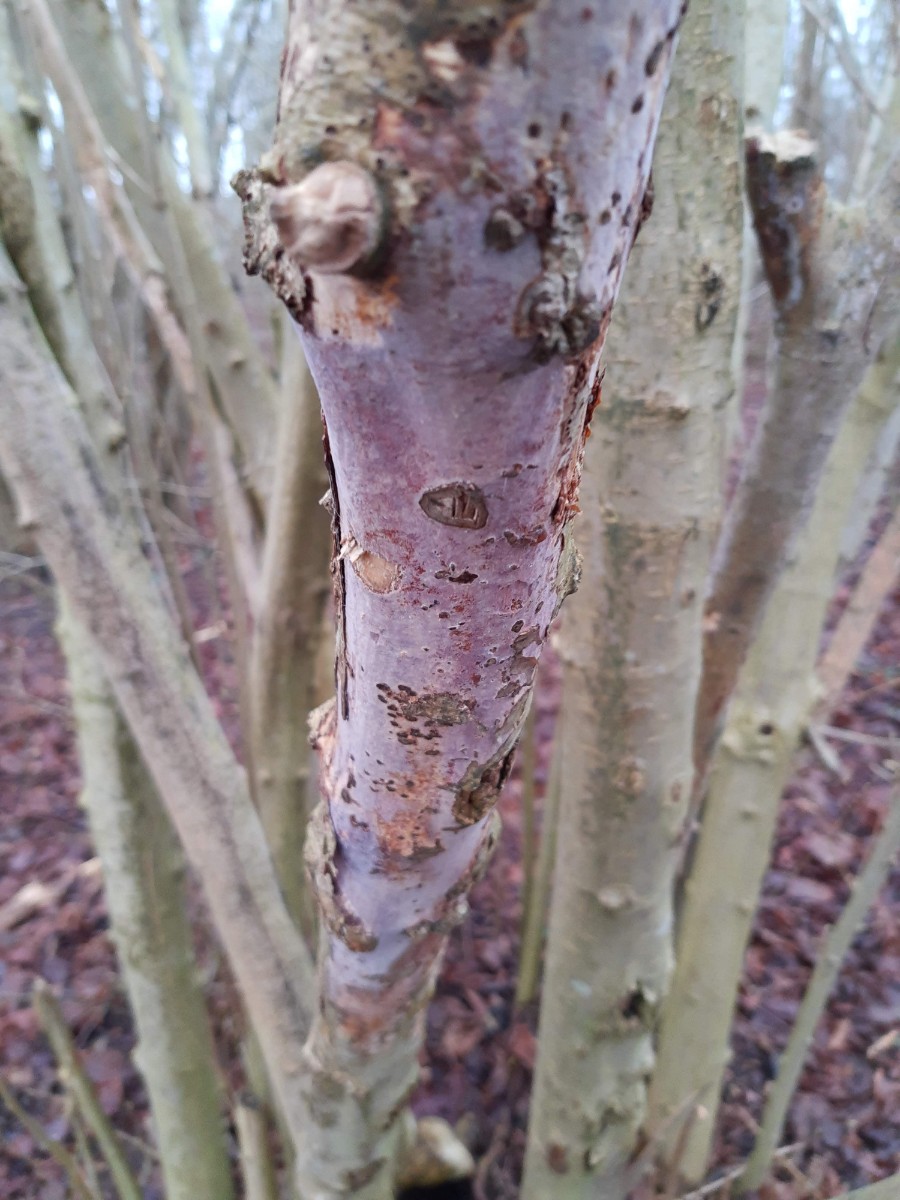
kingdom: Fungi
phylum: Basidiomycota
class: Agaricomycetes
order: Corticiales
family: Vuilleminiaceae
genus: Vuilleminia
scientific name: Vuilleminia coryli
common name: hassel-barksprænger
